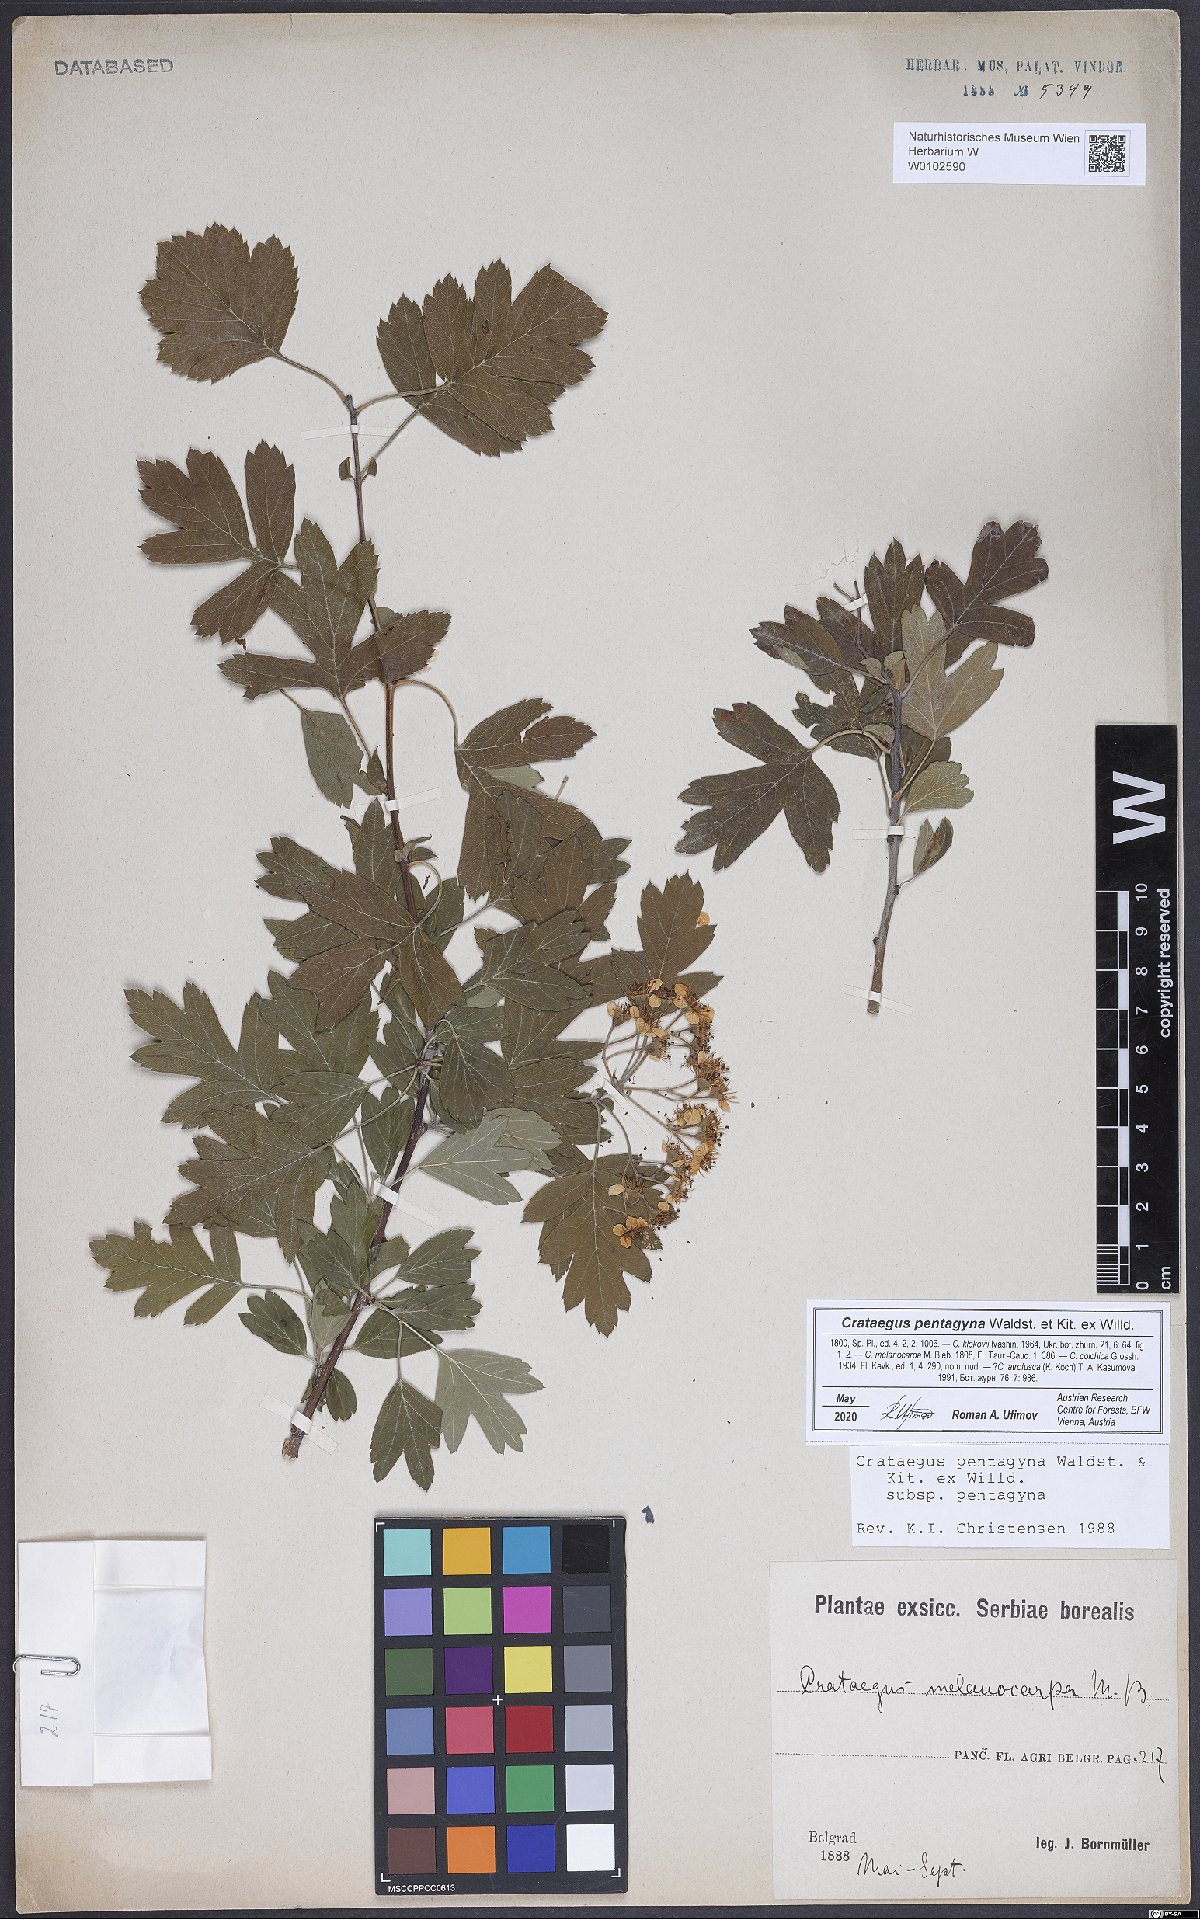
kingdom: Plantae
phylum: Tracheophyta
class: Magnoliopsida
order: Rosales
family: Rosaceae
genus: Crataegus
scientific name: Crataegus pentagyna
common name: Small-flowered black hawthorn
